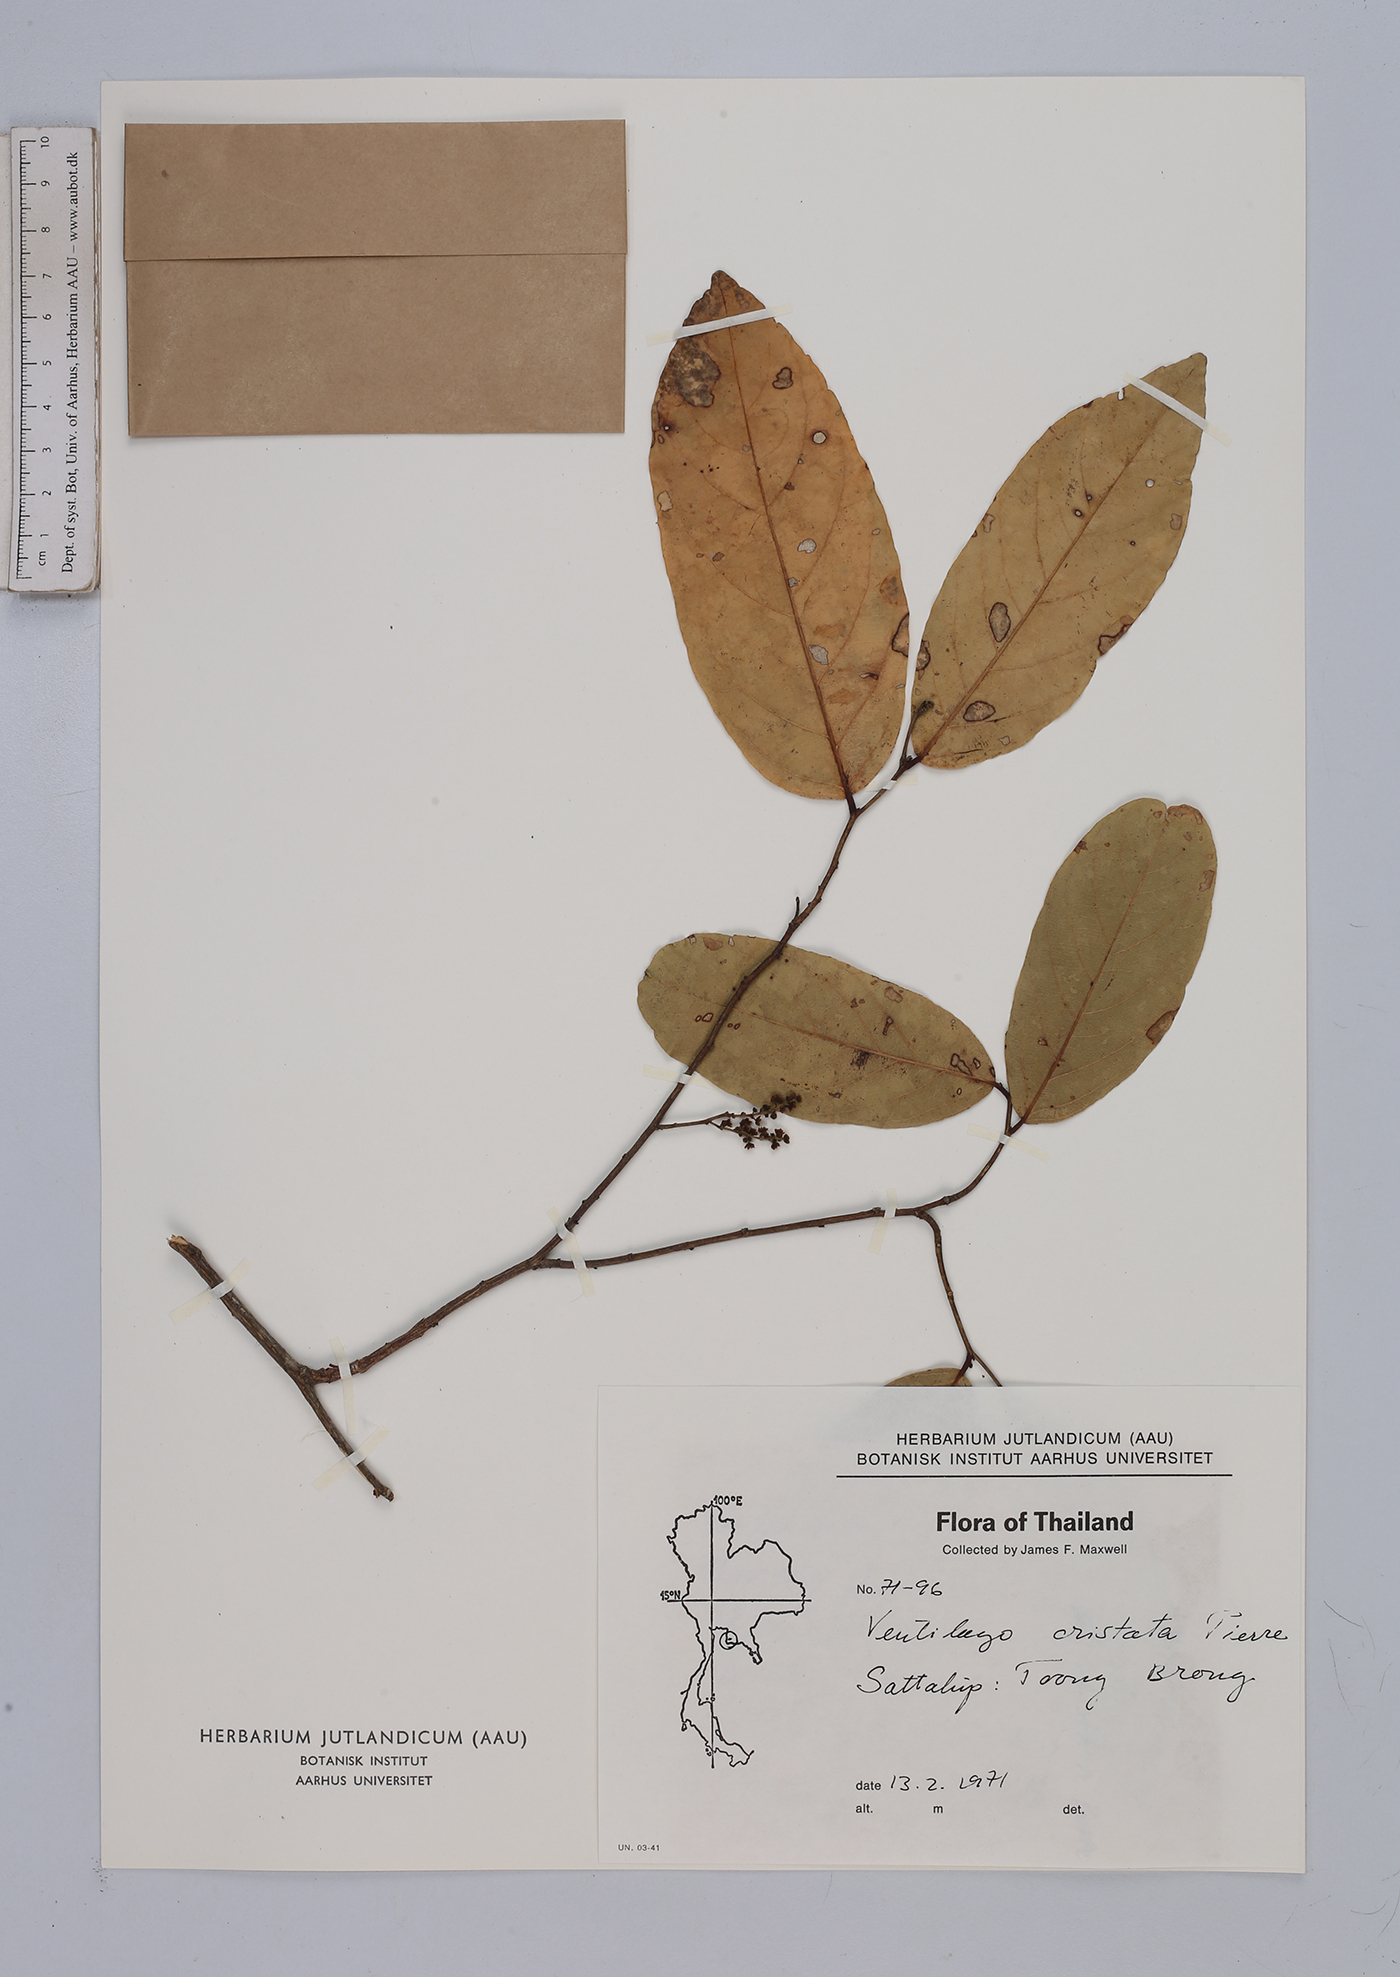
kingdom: Plantae
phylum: Tracheophyta
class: Magnoliopsida
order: Rosales
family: Rhamnaceae
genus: Ventilago
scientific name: Ventilago cristata
